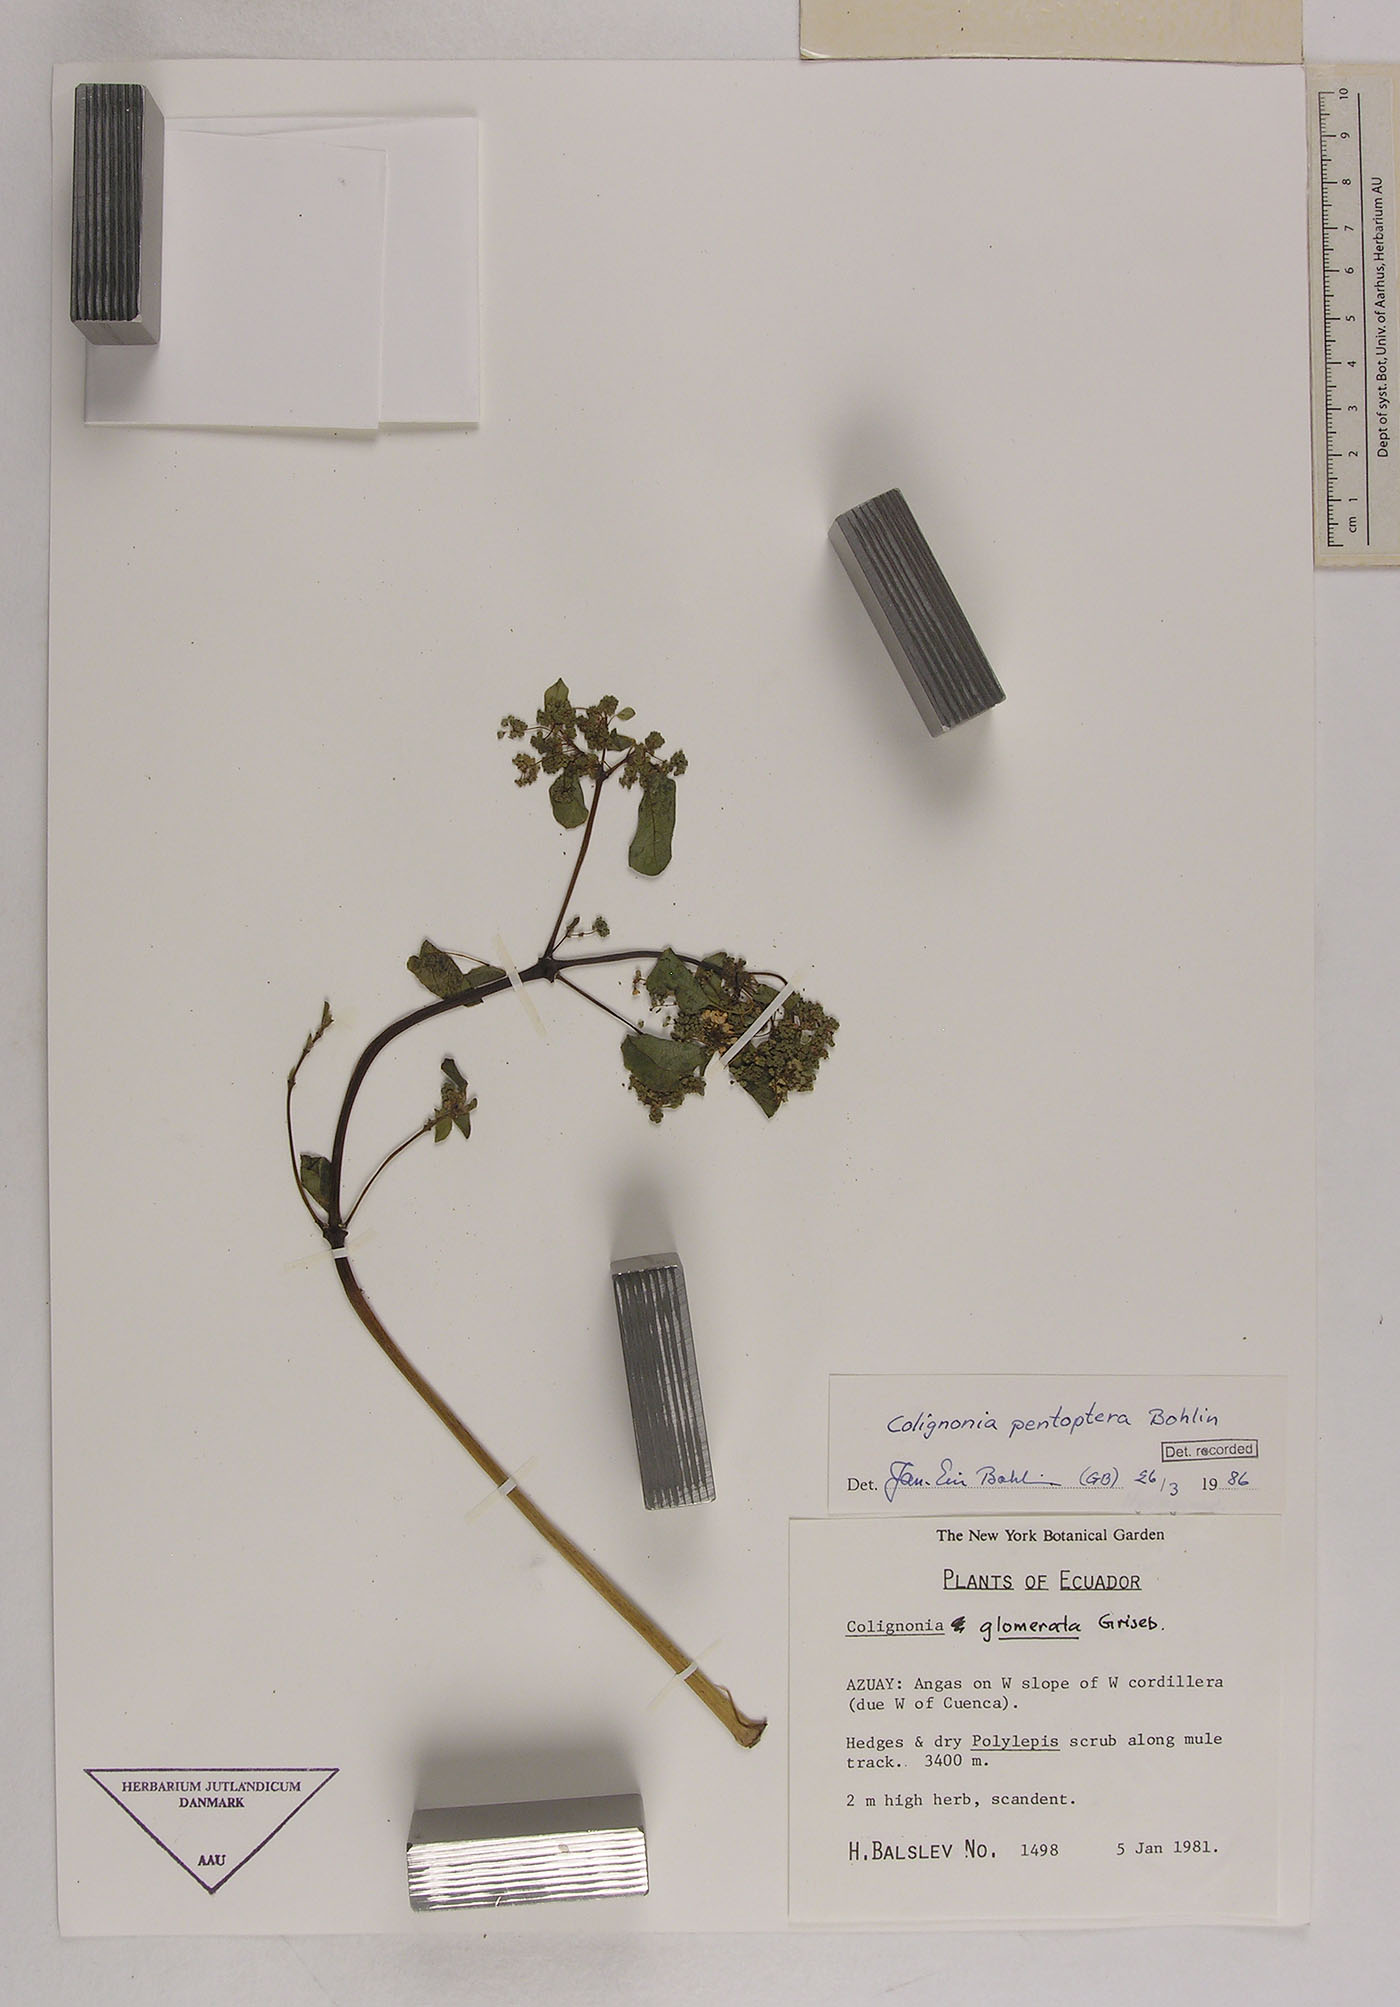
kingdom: Plantae
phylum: Tracheophyta
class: Magnoliopsida
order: Caryophyllales
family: Nyctaginaceae
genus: Colignonia
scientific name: Colignonia pentoptera
